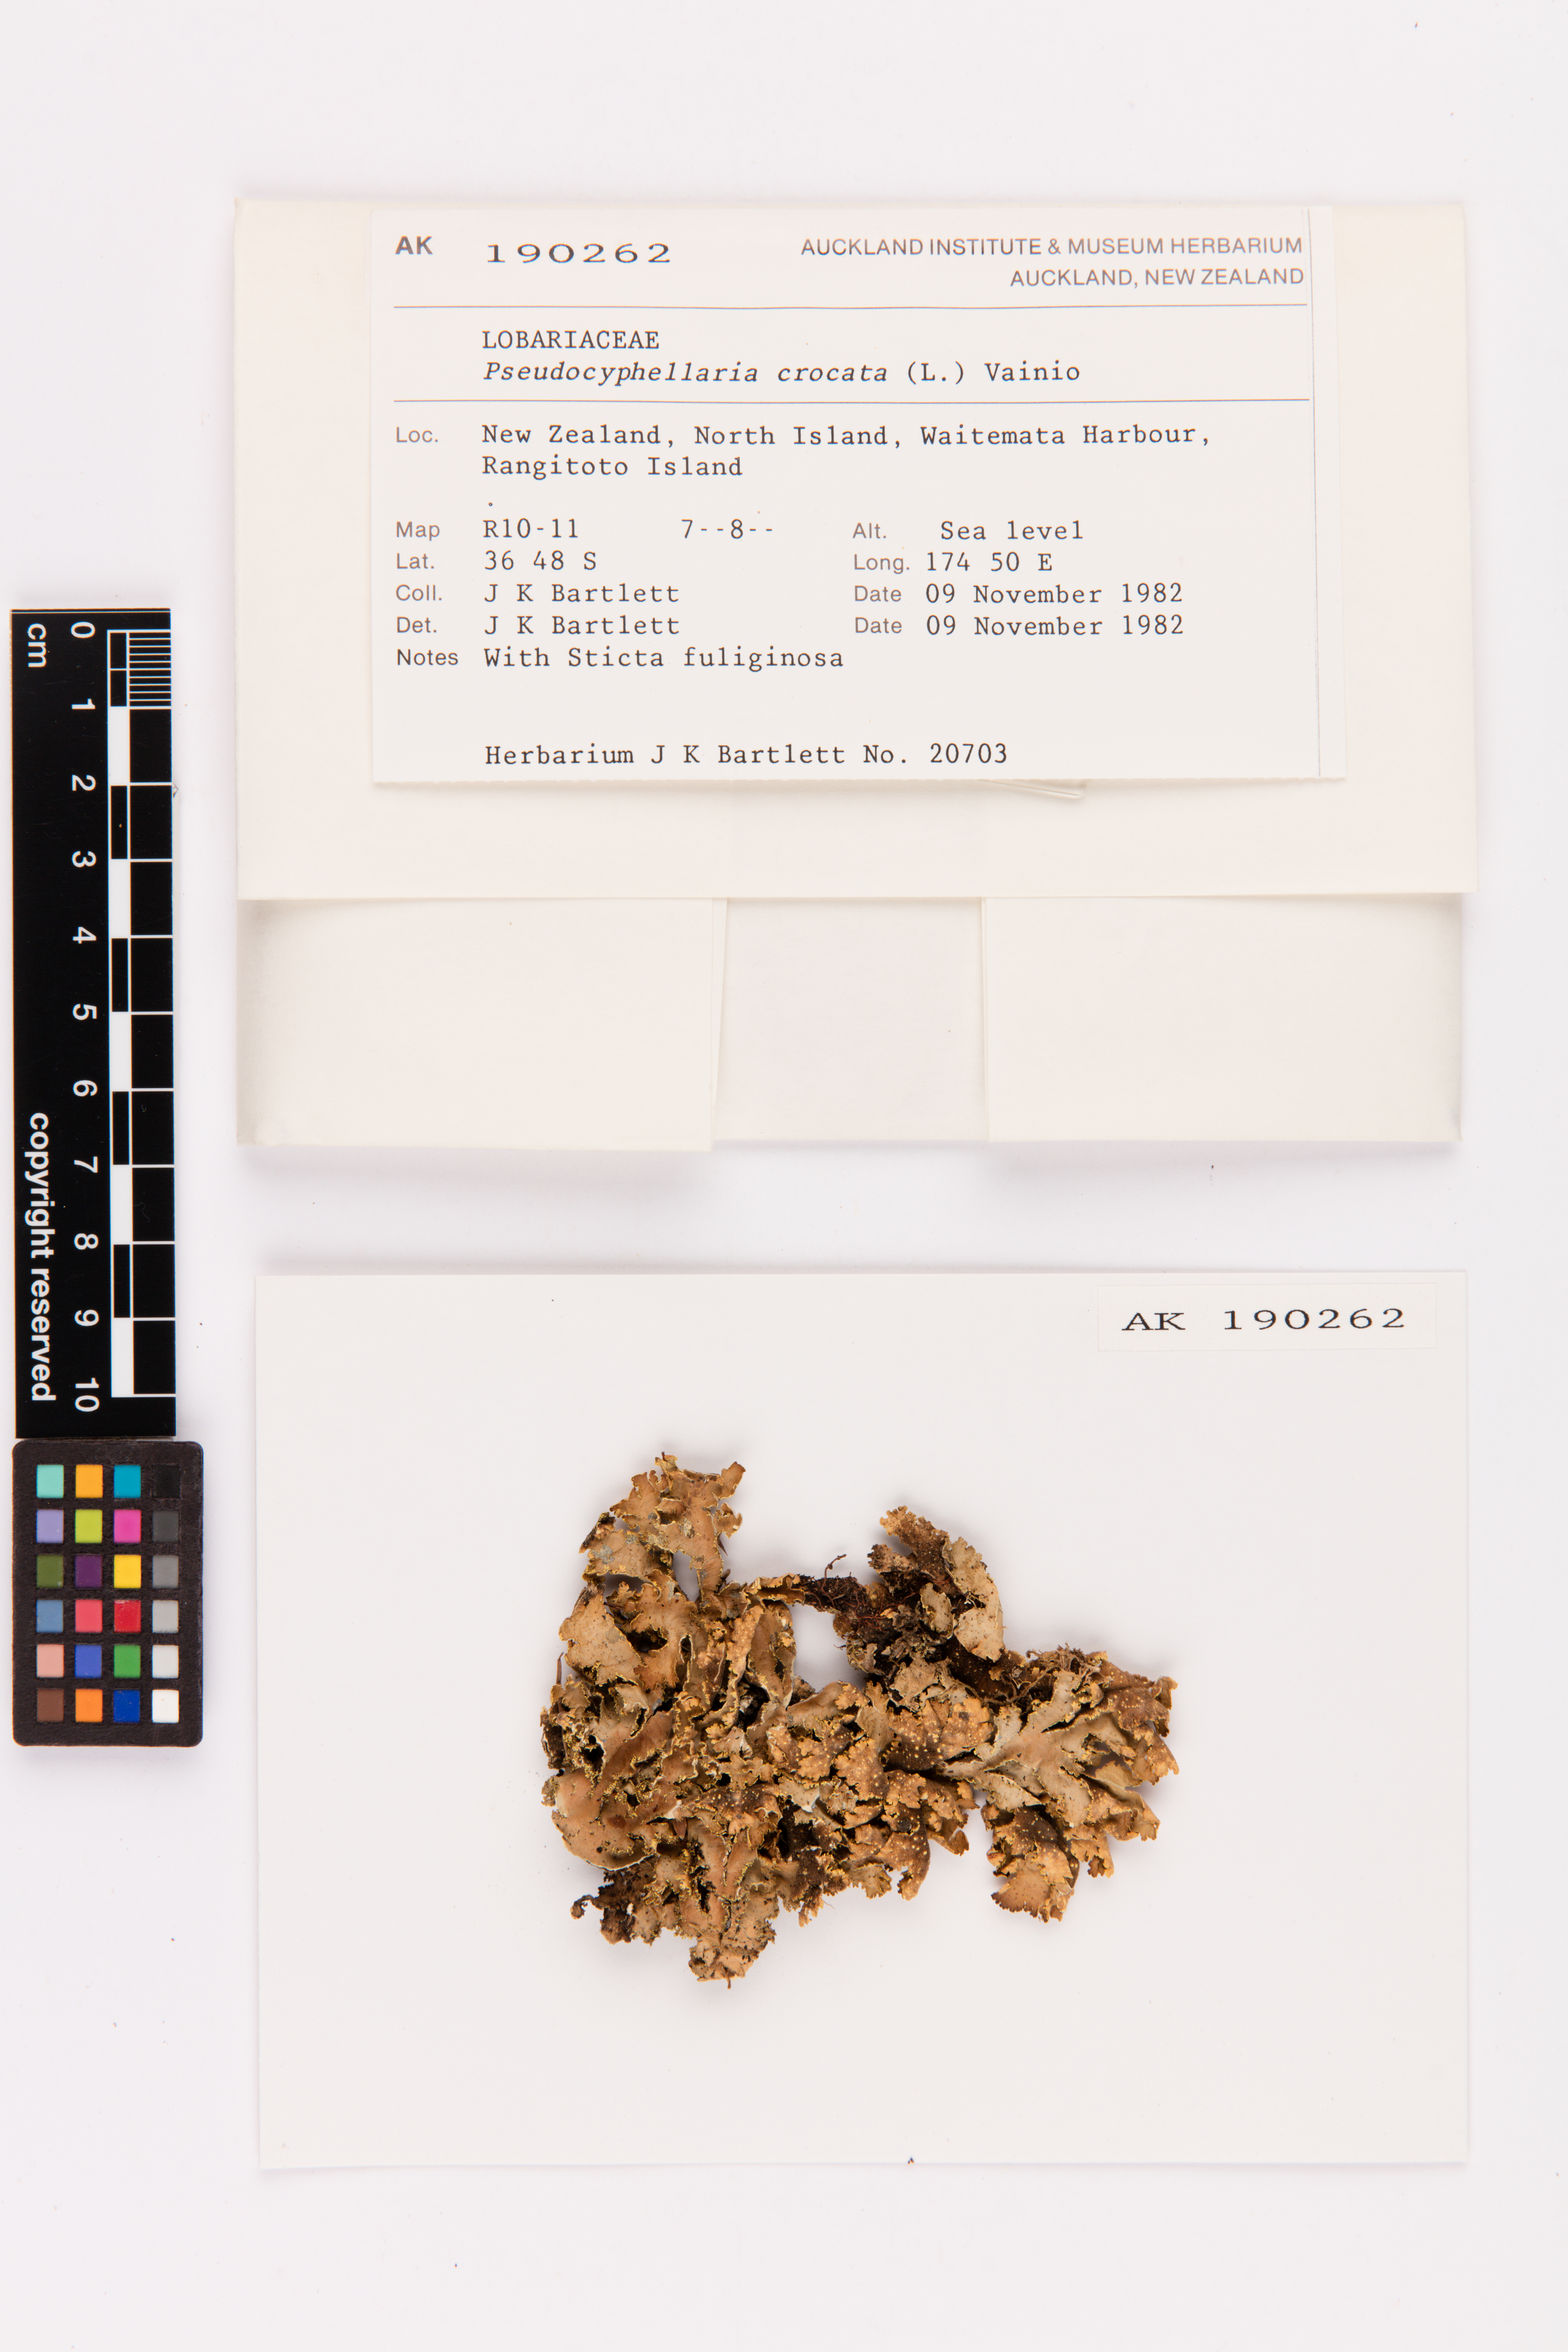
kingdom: Fungi
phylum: Ascomycota
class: Lecanoromycetes
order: Peltigerales
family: Lobariaceae
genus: Pseudocyphellaria
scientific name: Pseudocyphellaria crocata
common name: Golden specklebelly
